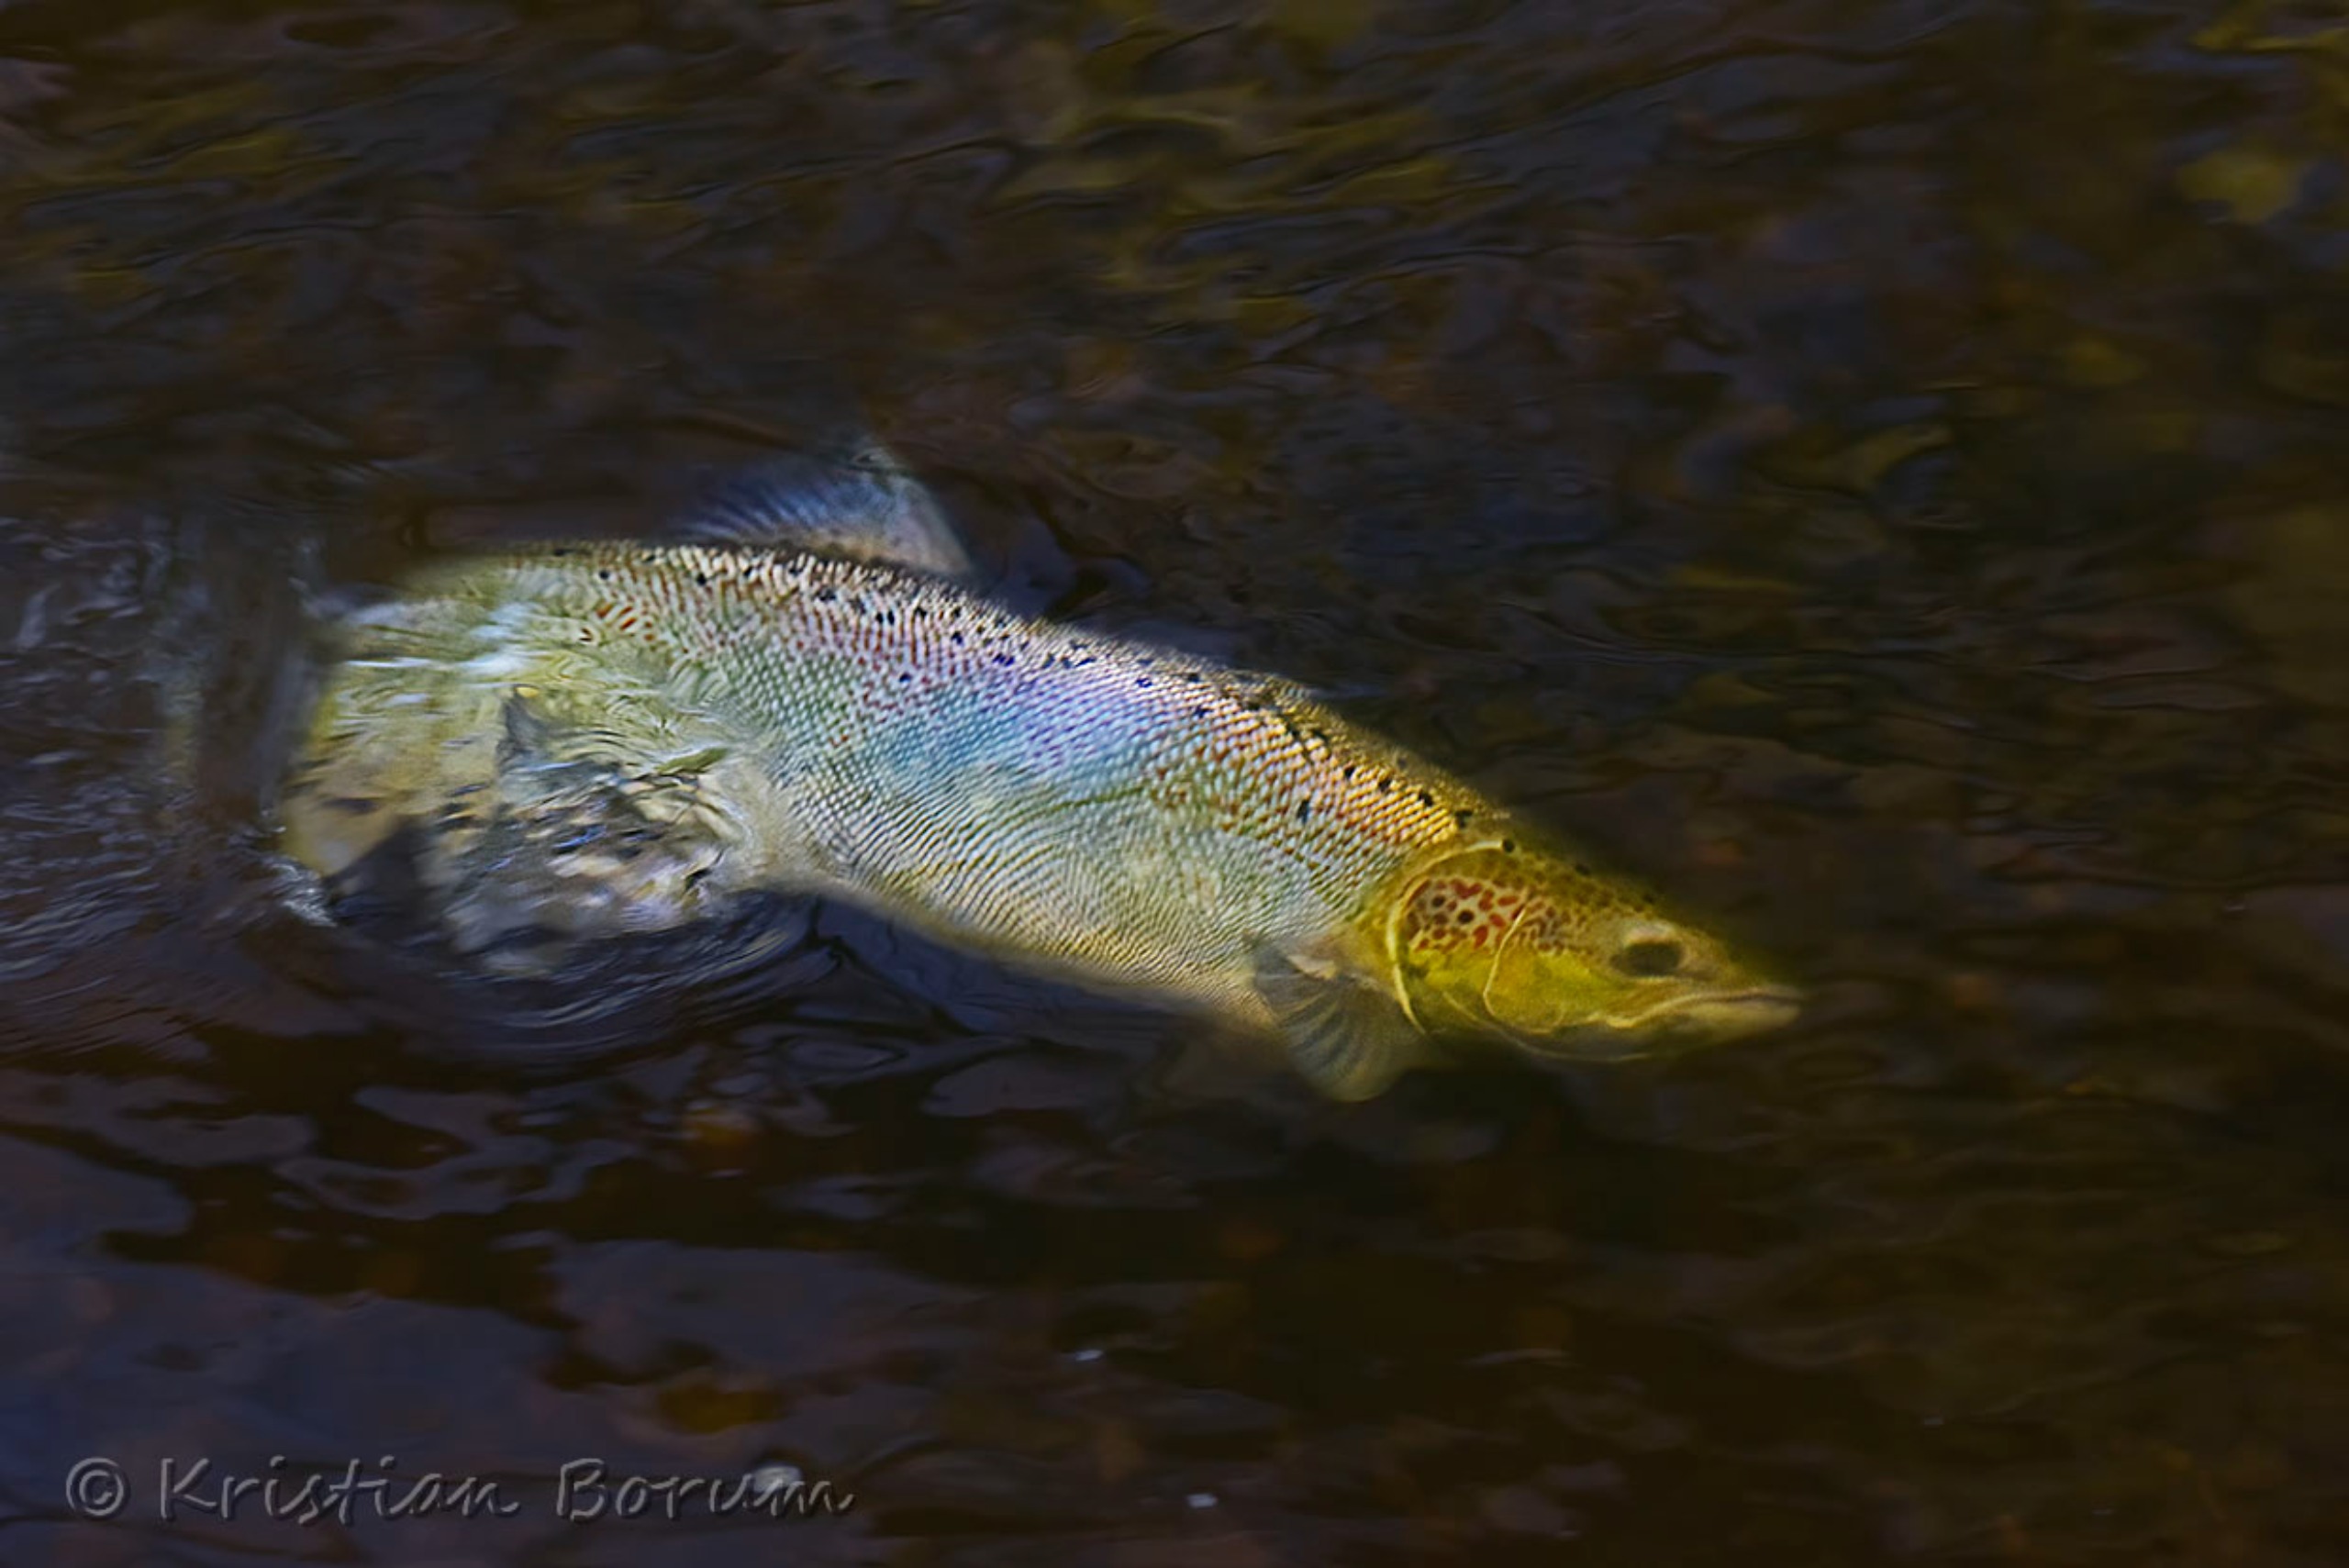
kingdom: Animalia
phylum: Chordata
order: Salmoniformes
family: Salmonidae
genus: Salmo
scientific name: Salmo salar
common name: Laks
